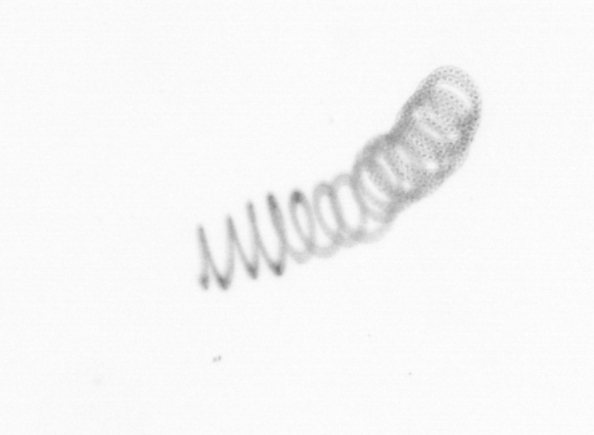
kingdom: Chromista
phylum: Ochrophyta
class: Bacillariophyceae
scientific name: Bacillariophyceae
